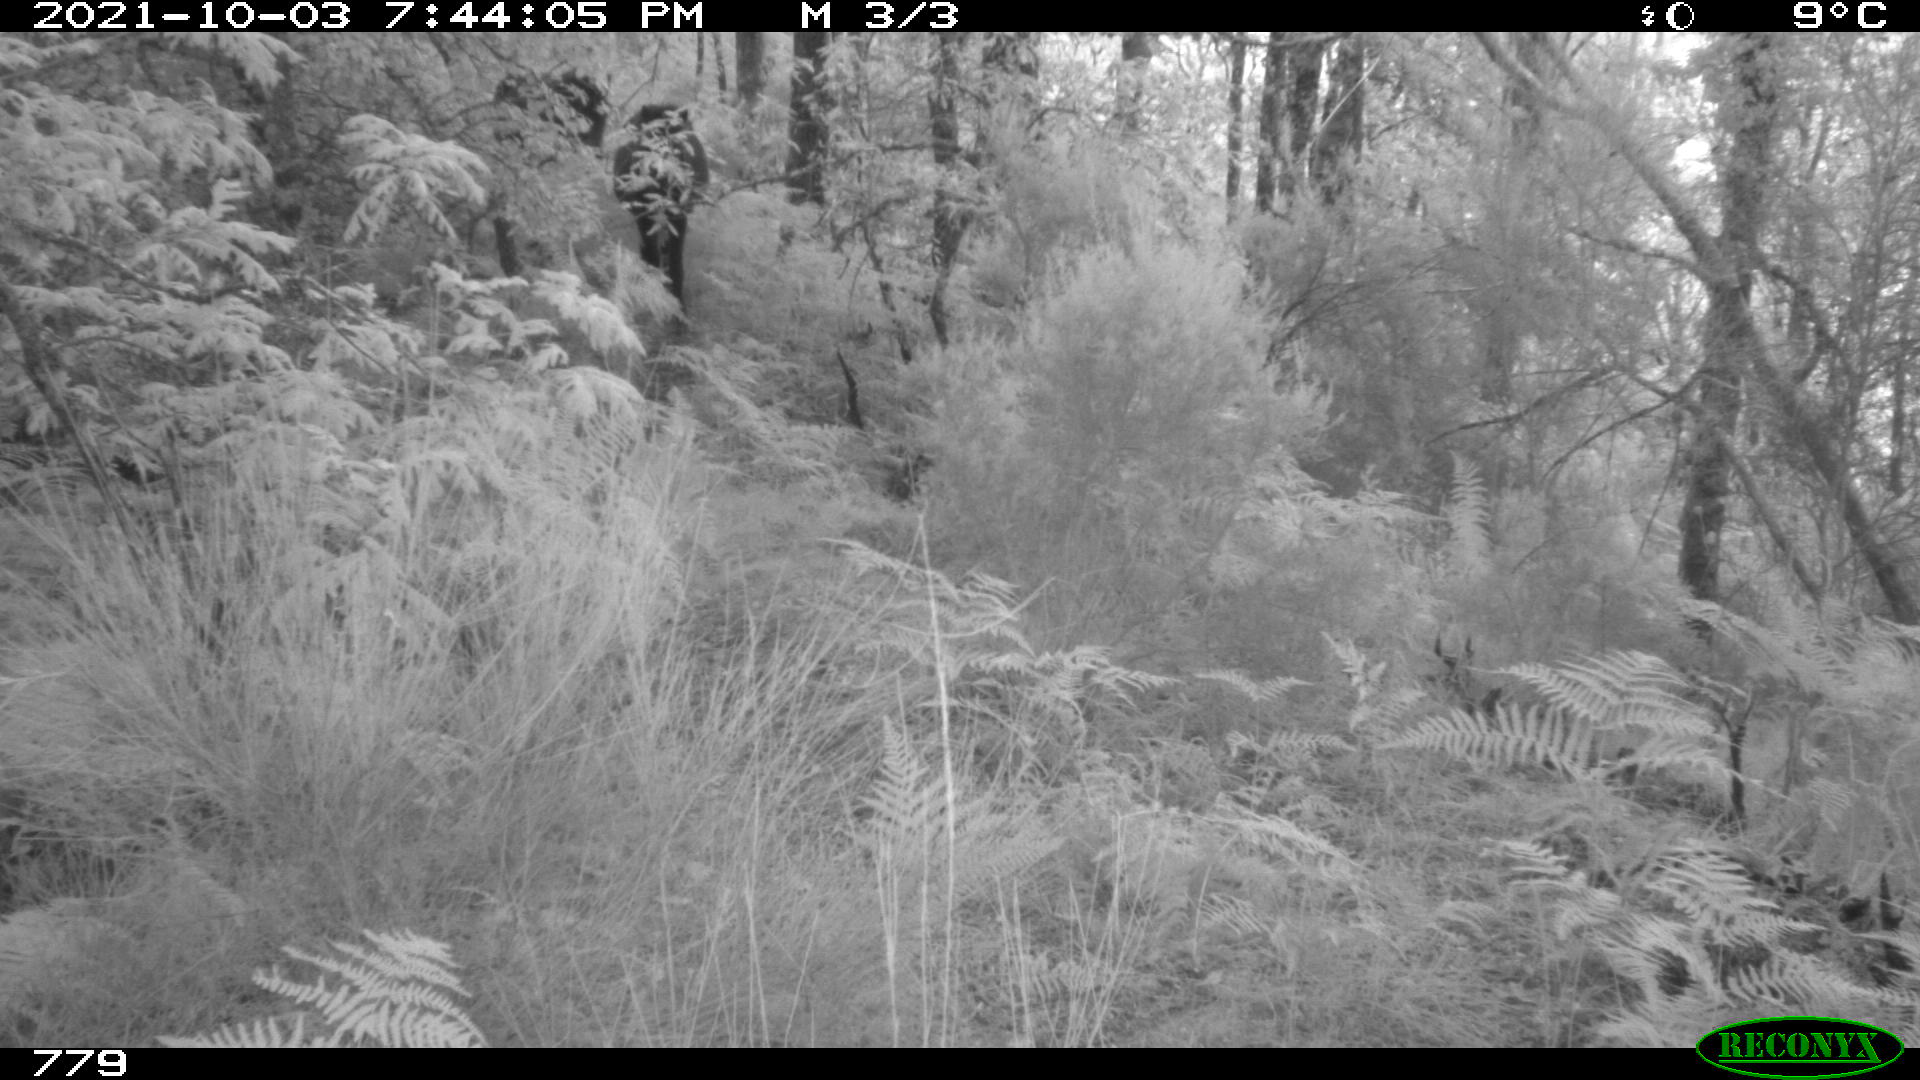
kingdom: Animalia
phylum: Chordata
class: Mammalia
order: Perissodactyla
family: Equidae
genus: Equus
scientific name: Equus caballus
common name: Horse
